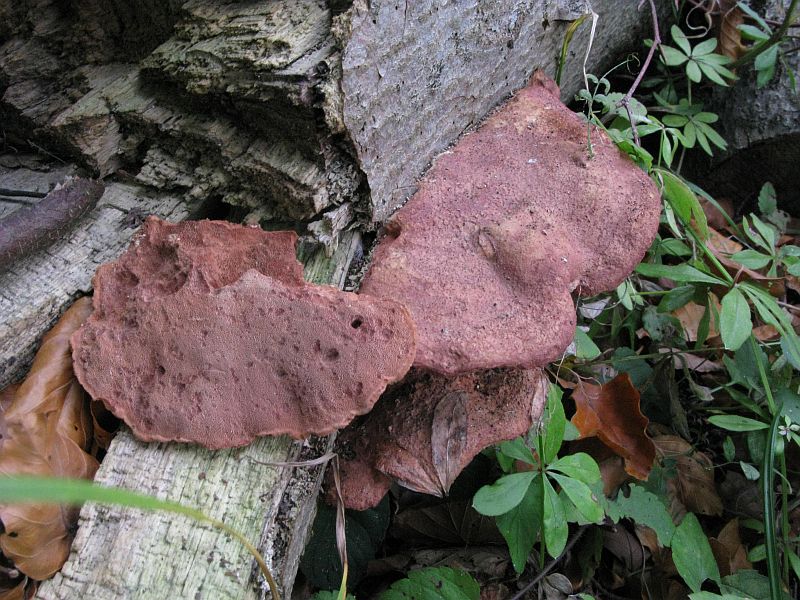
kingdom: Fungi
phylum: Basidiomycota
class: Agaricomycetes
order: Polyporales
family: Phanerochaetaceae
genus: Hapalopilus
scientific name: Hapalopilus rutilans
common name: rødlig okkerporesvamp
